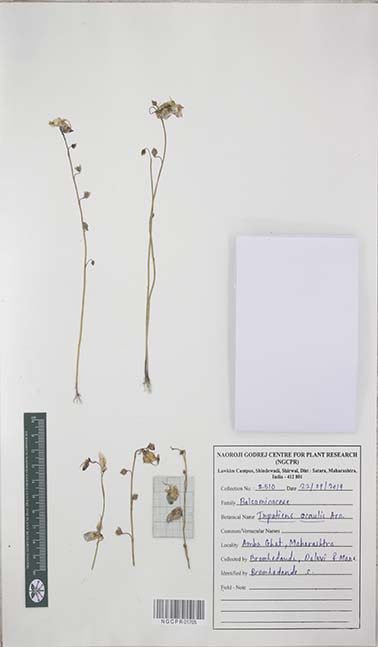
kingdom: Plantae
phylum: Tracheophyta
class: Magnoliopsida
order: Ericales
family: Balsaminaceae
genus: Impatiens
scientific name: Impatiens acaulis
